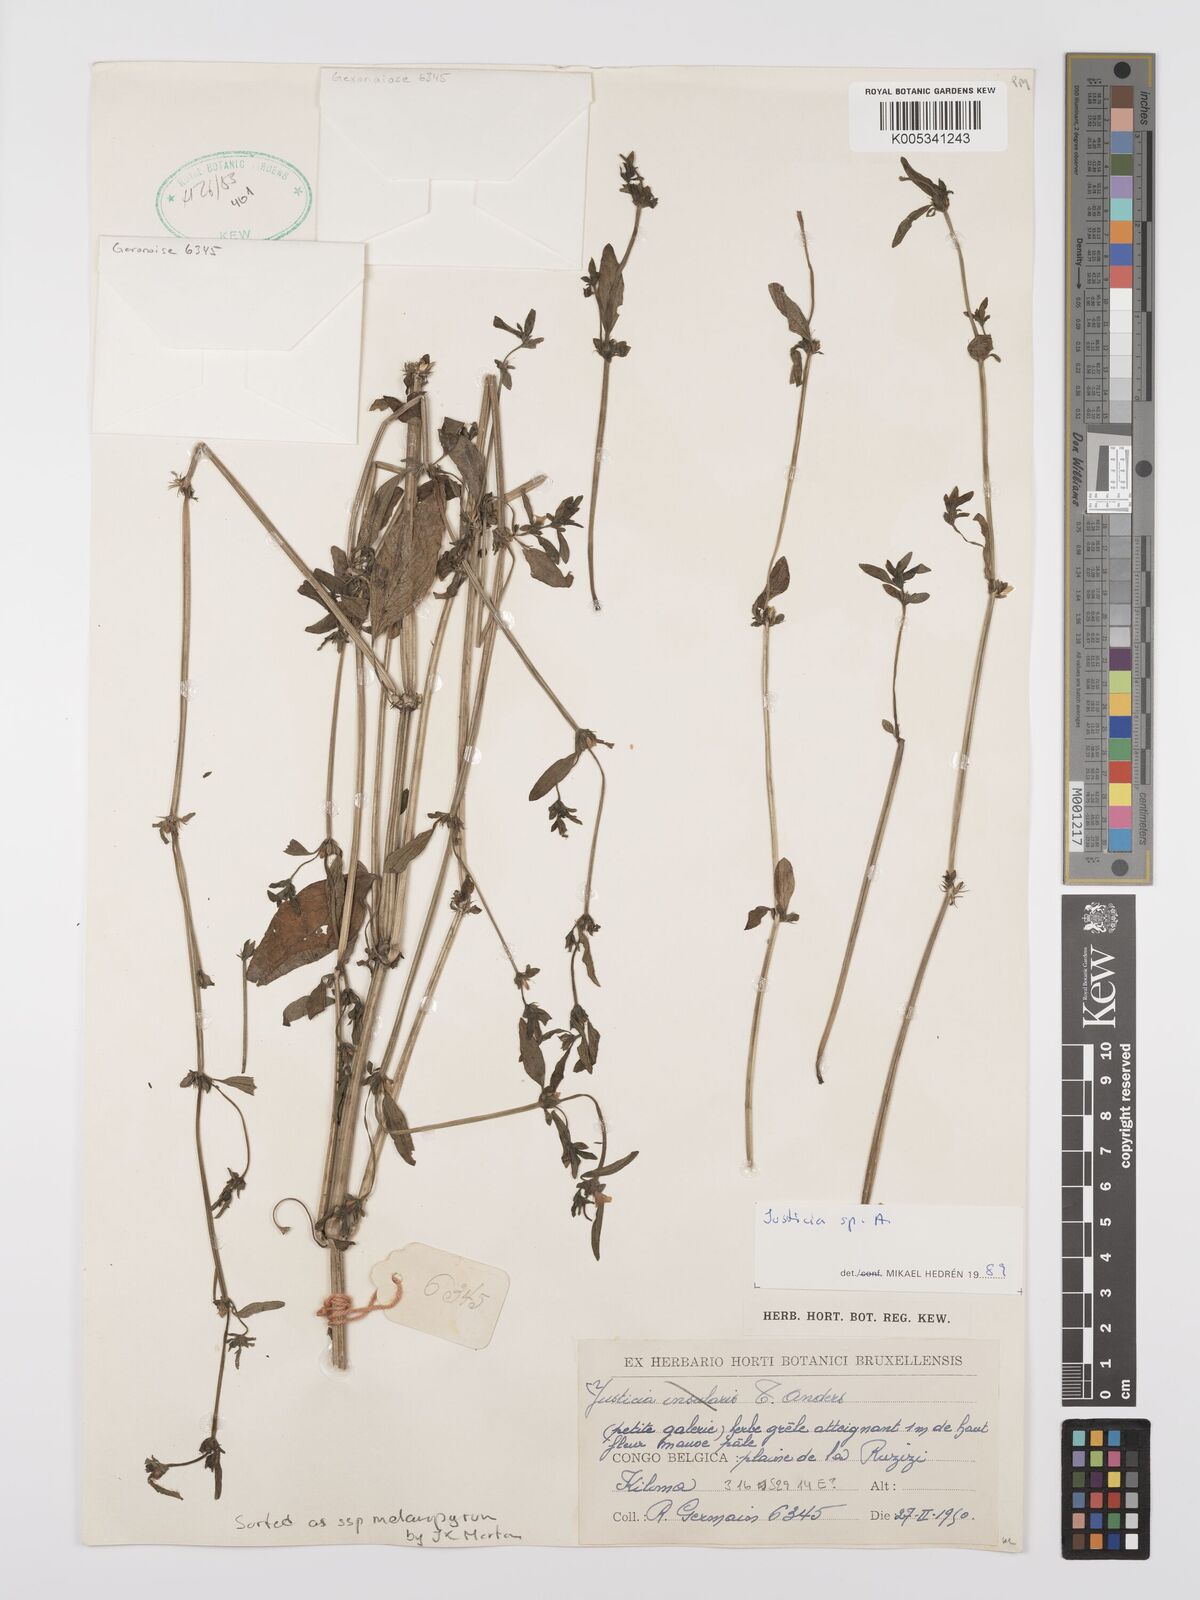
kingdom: Plantae
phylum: Tracheophyta
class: Magnoliopsida
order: Lamiales
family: Acanthaceae
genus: Justicia
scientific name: Justicia boaleri
